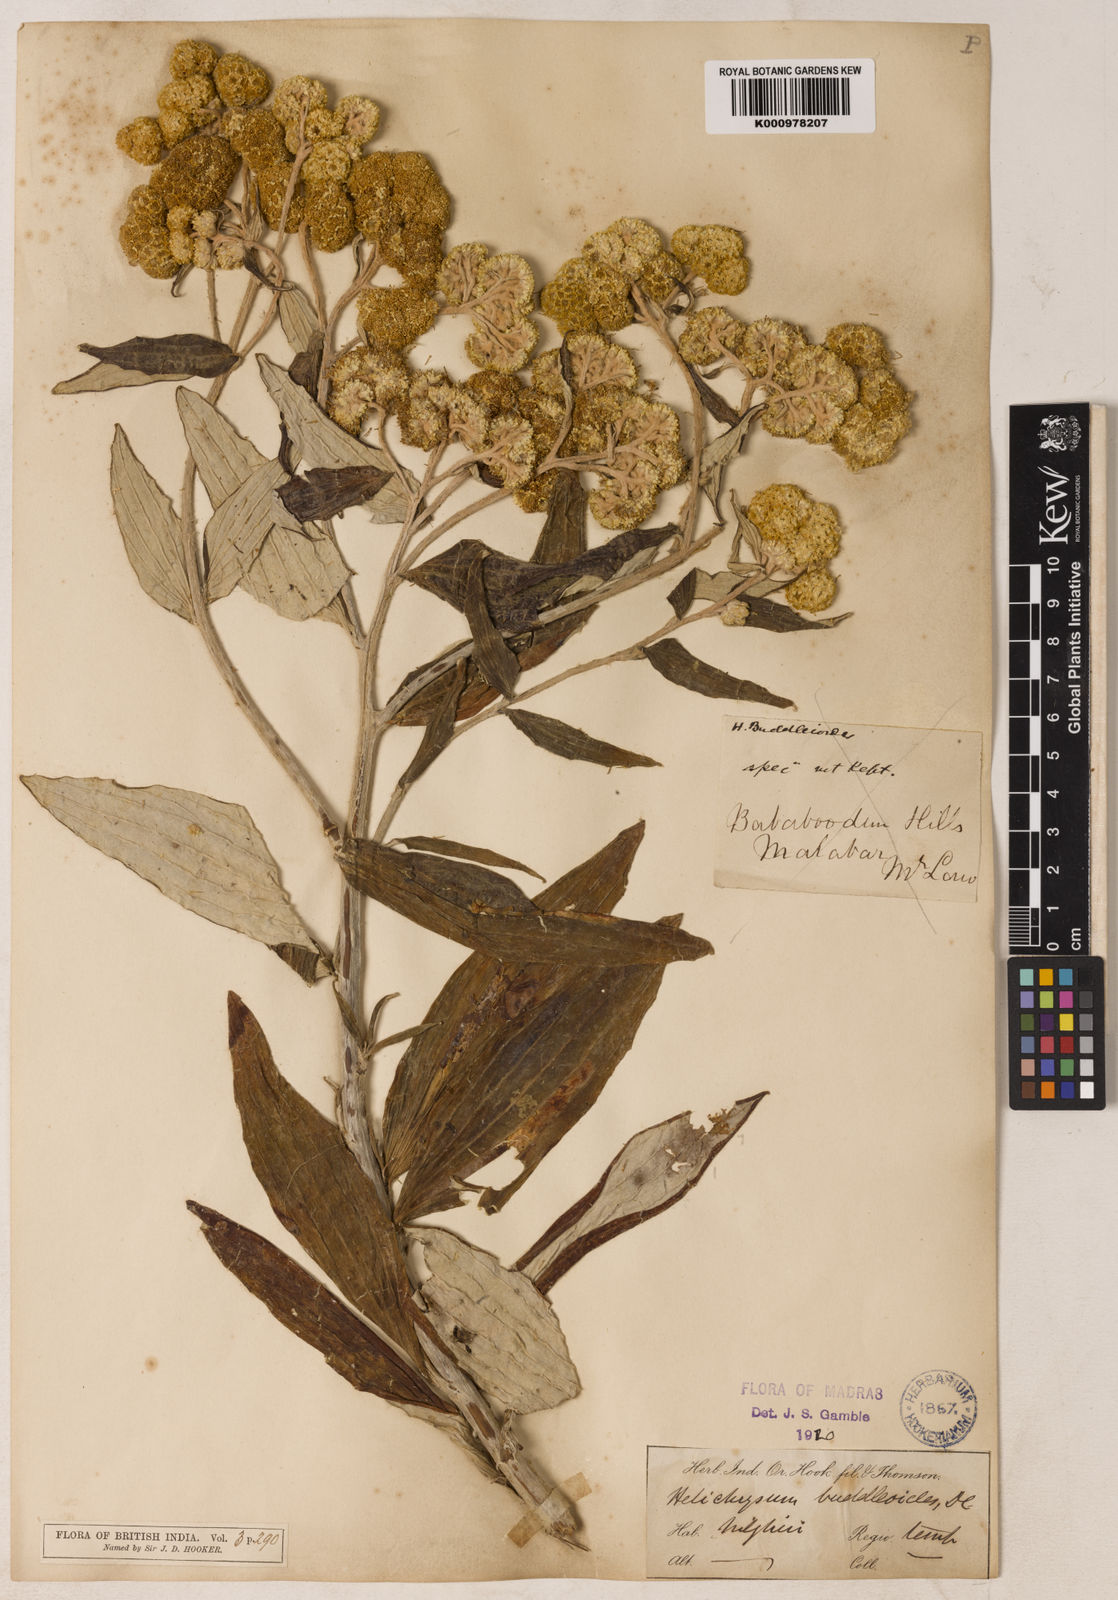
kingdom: Plantae
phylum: Tracheophyta
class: Magnoliopsida
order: Asterales
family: Asteraceae
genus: Helichrysum
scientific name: Helichrysum
